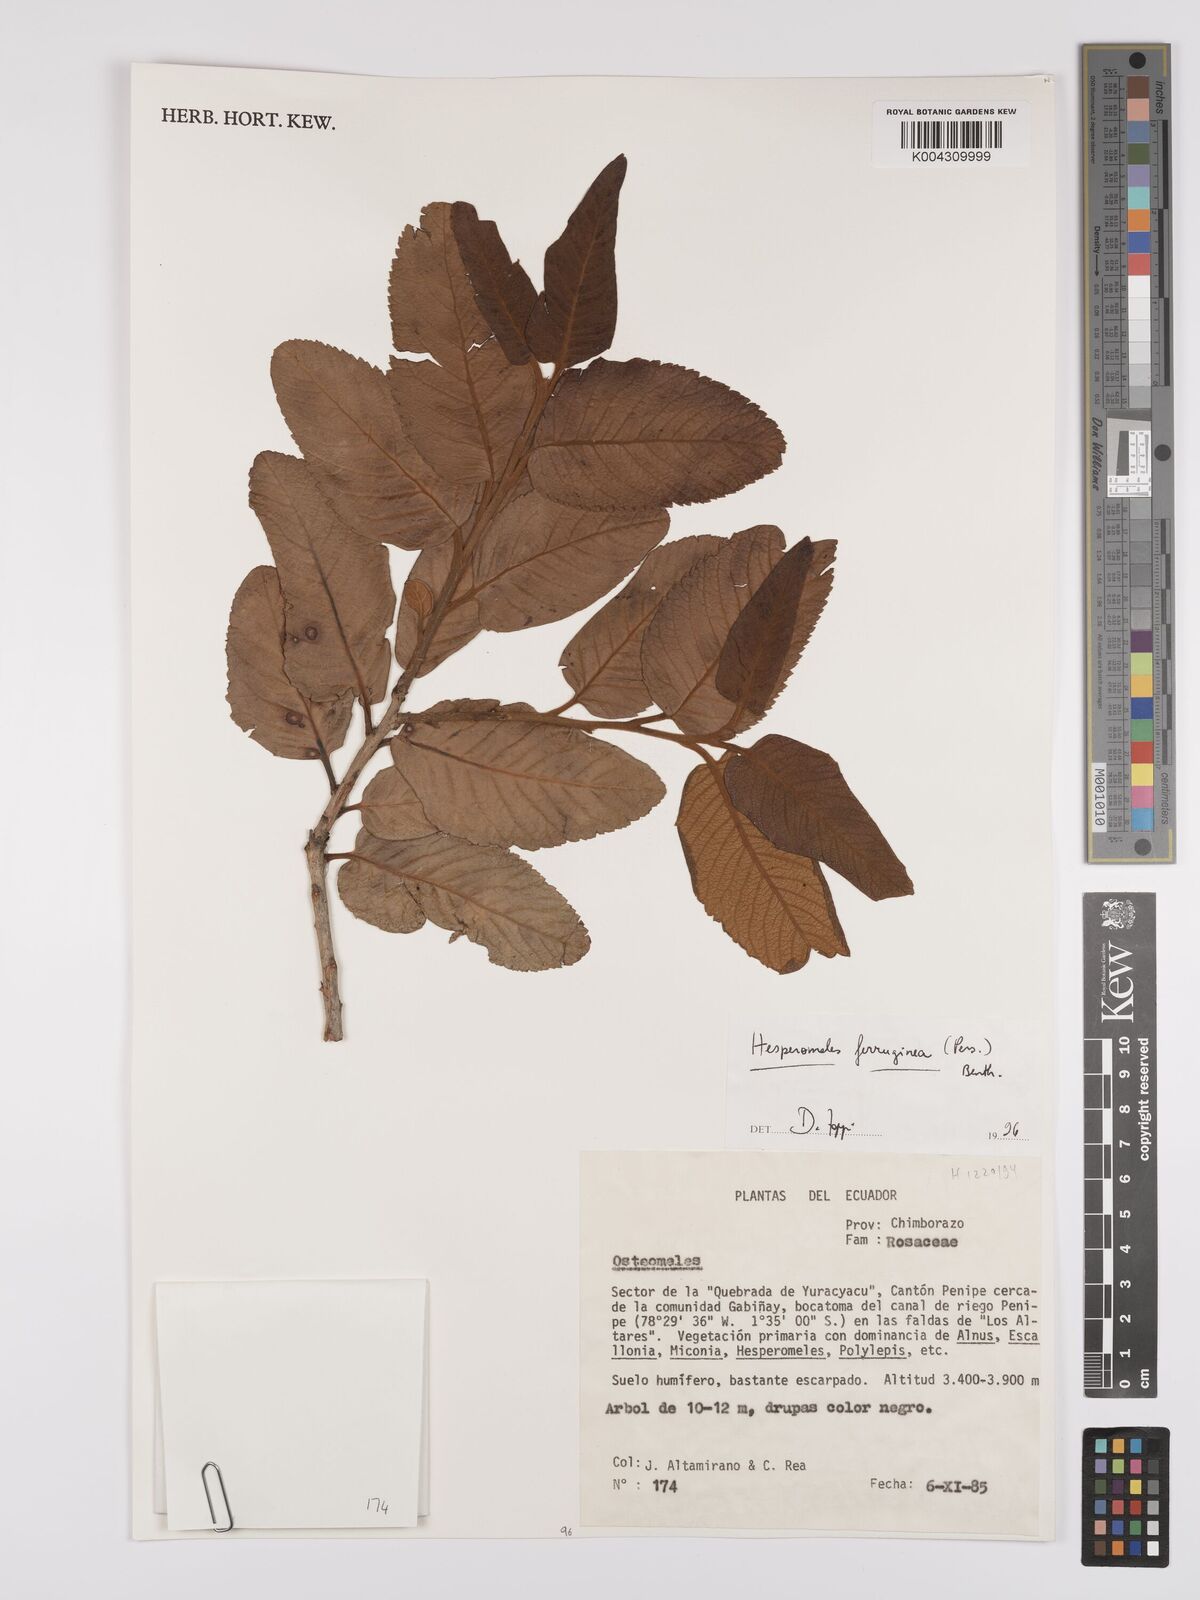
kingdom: Plantae
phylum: Tracheophyta
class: Magnoliopsida
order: Rosales
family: Rosaceae
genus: Hesperomeles
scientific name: Hesperomeles ferruginea
